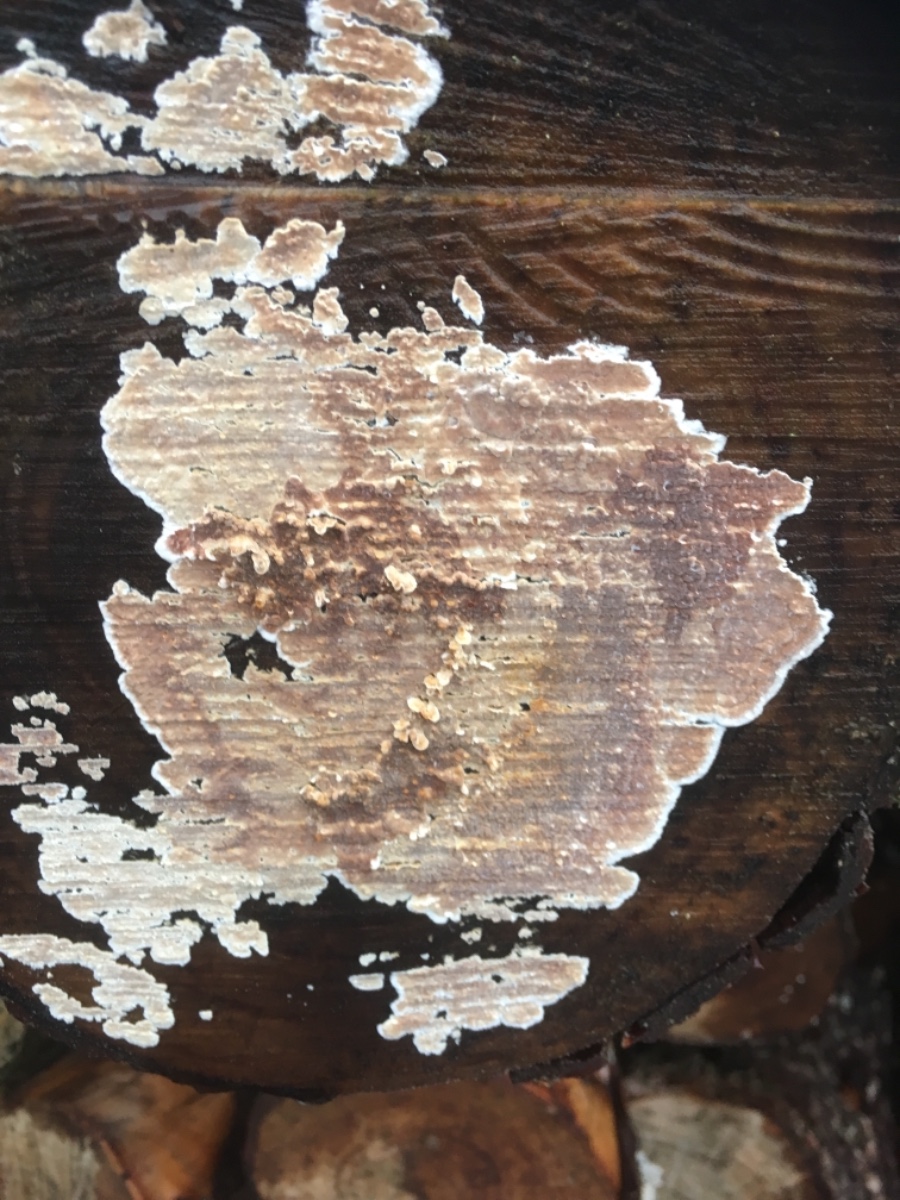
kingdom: Fungi
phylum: Basidiomycota
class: Agaricomycetes
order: Agaricales
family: Physalacriaceae
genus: Cylindrobasidium
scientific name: Cylindrobasidium evolvens
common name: sprækkehinde
